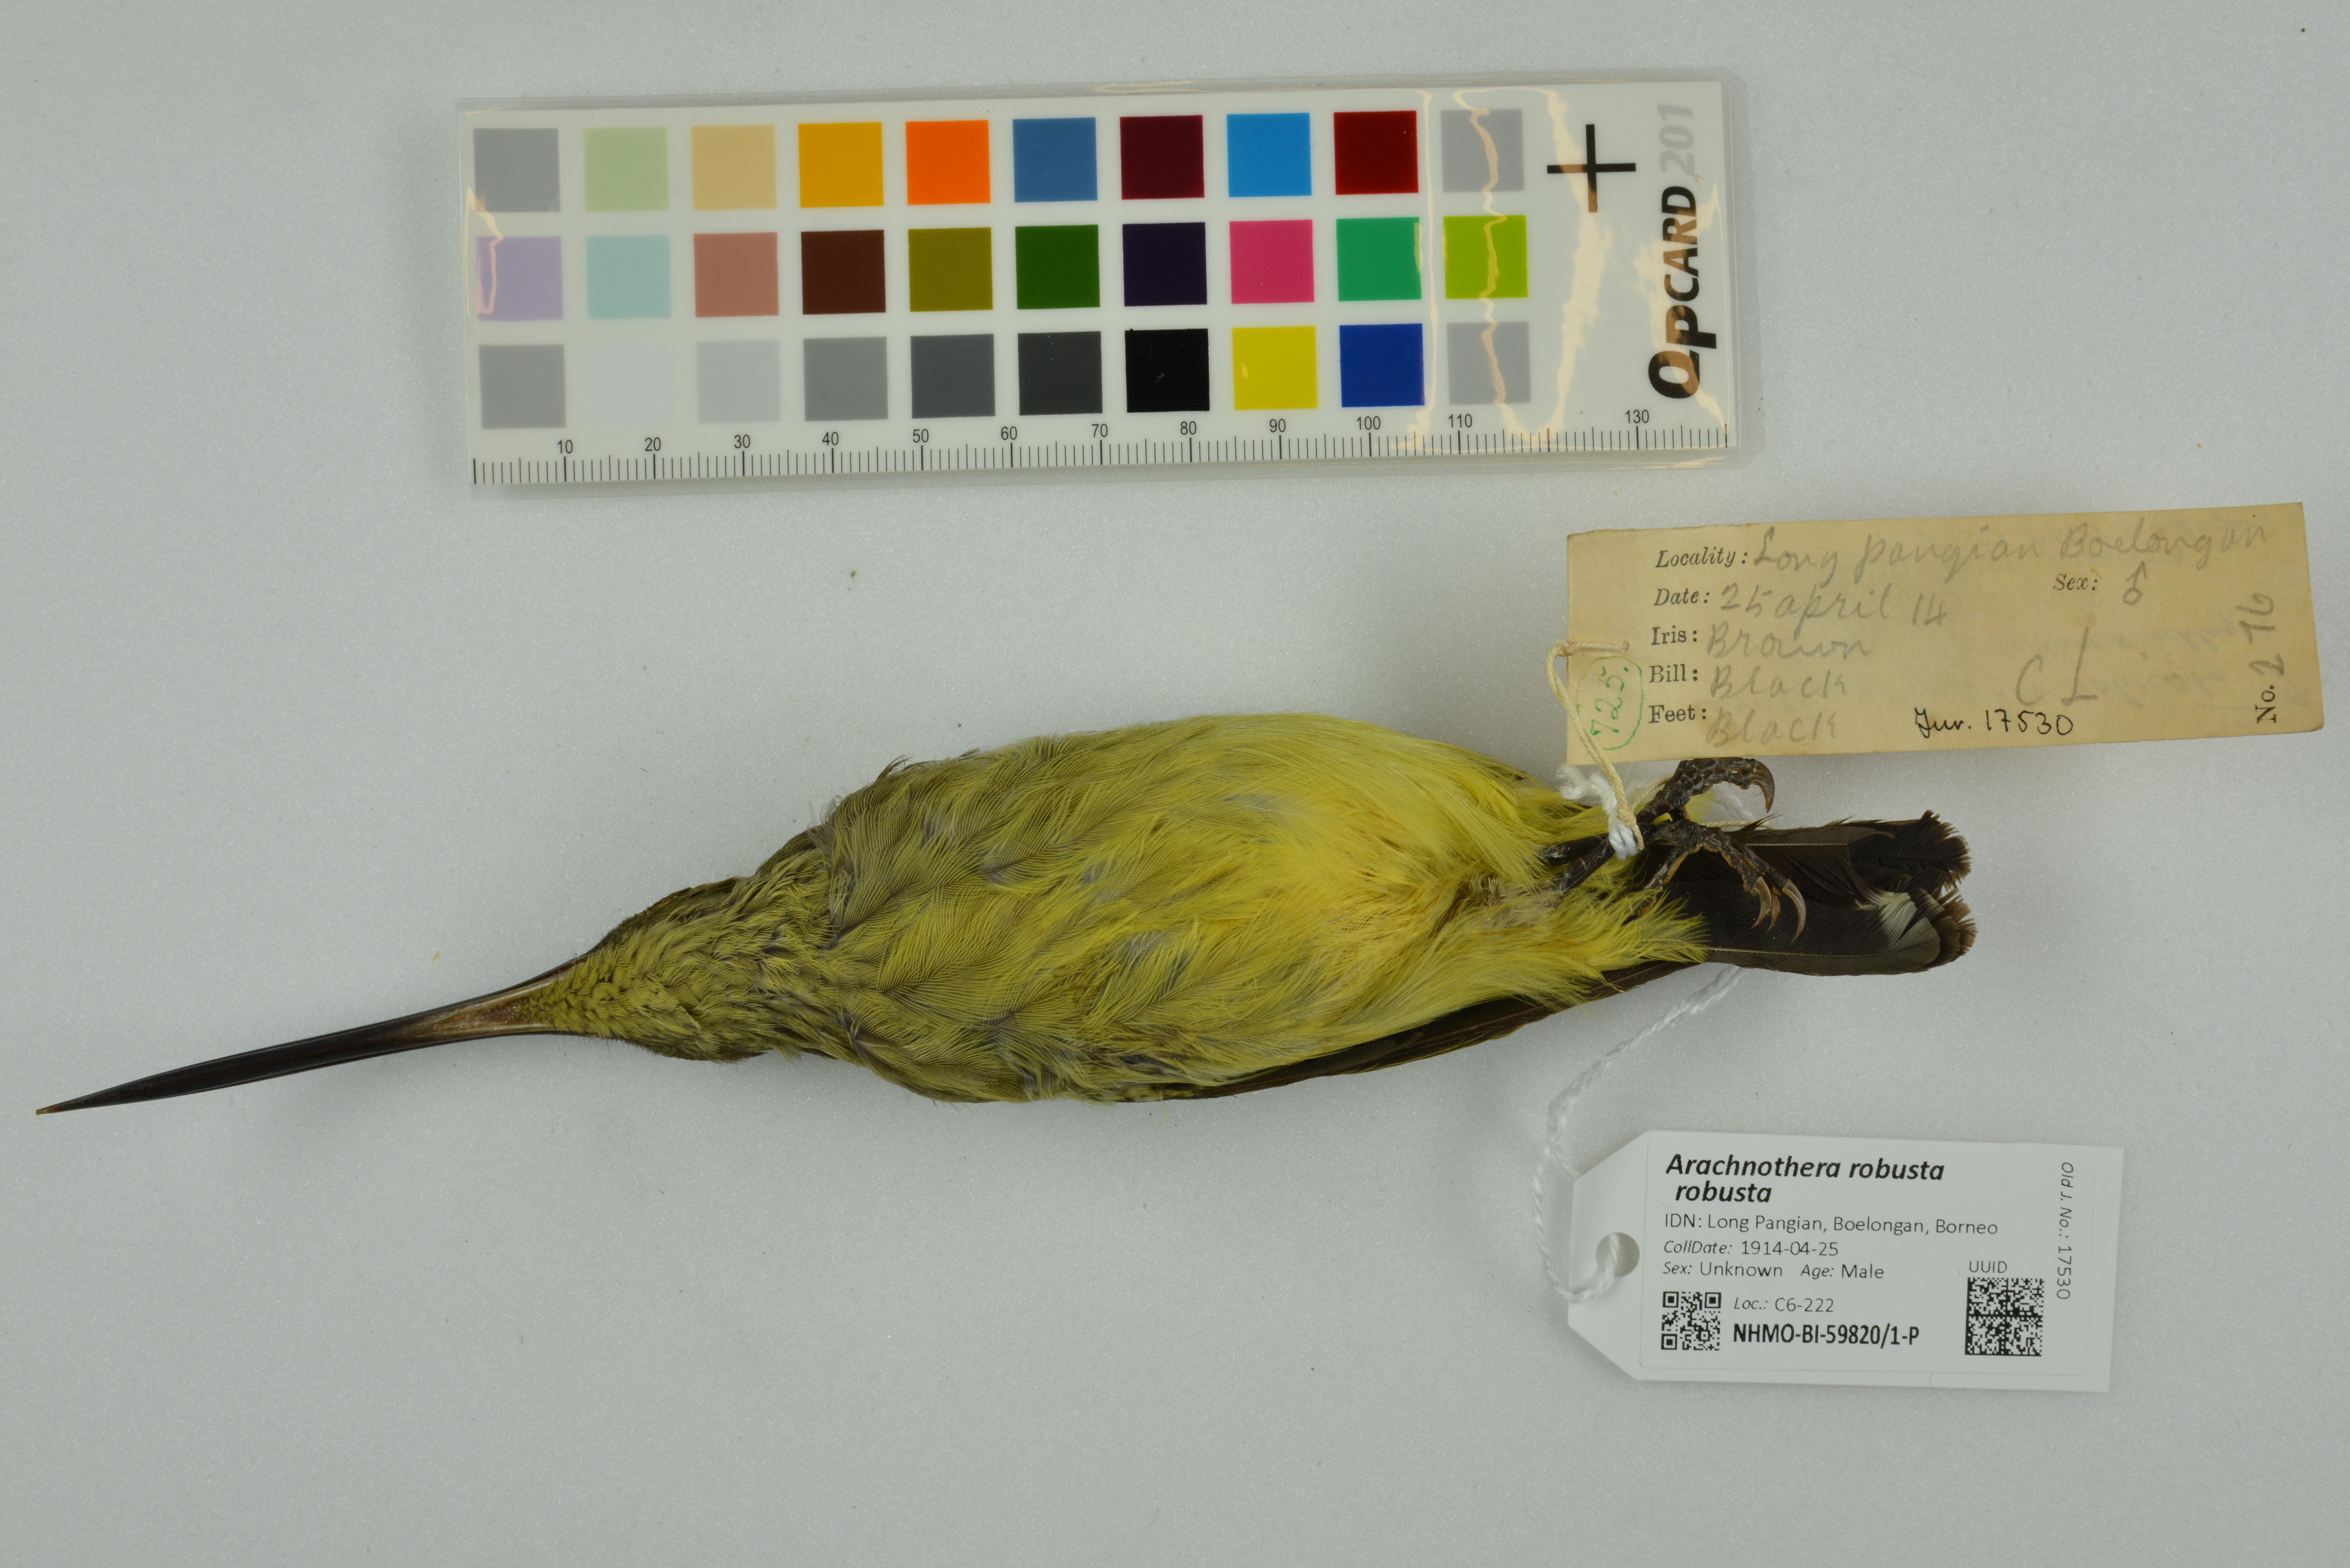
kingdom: Animalia
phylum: Chordata
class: Aves
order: Passeriformes
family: Nectariniidae
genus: Arachnothera
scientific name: Arachnothera robusta
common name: Long-billed spiderhunter
